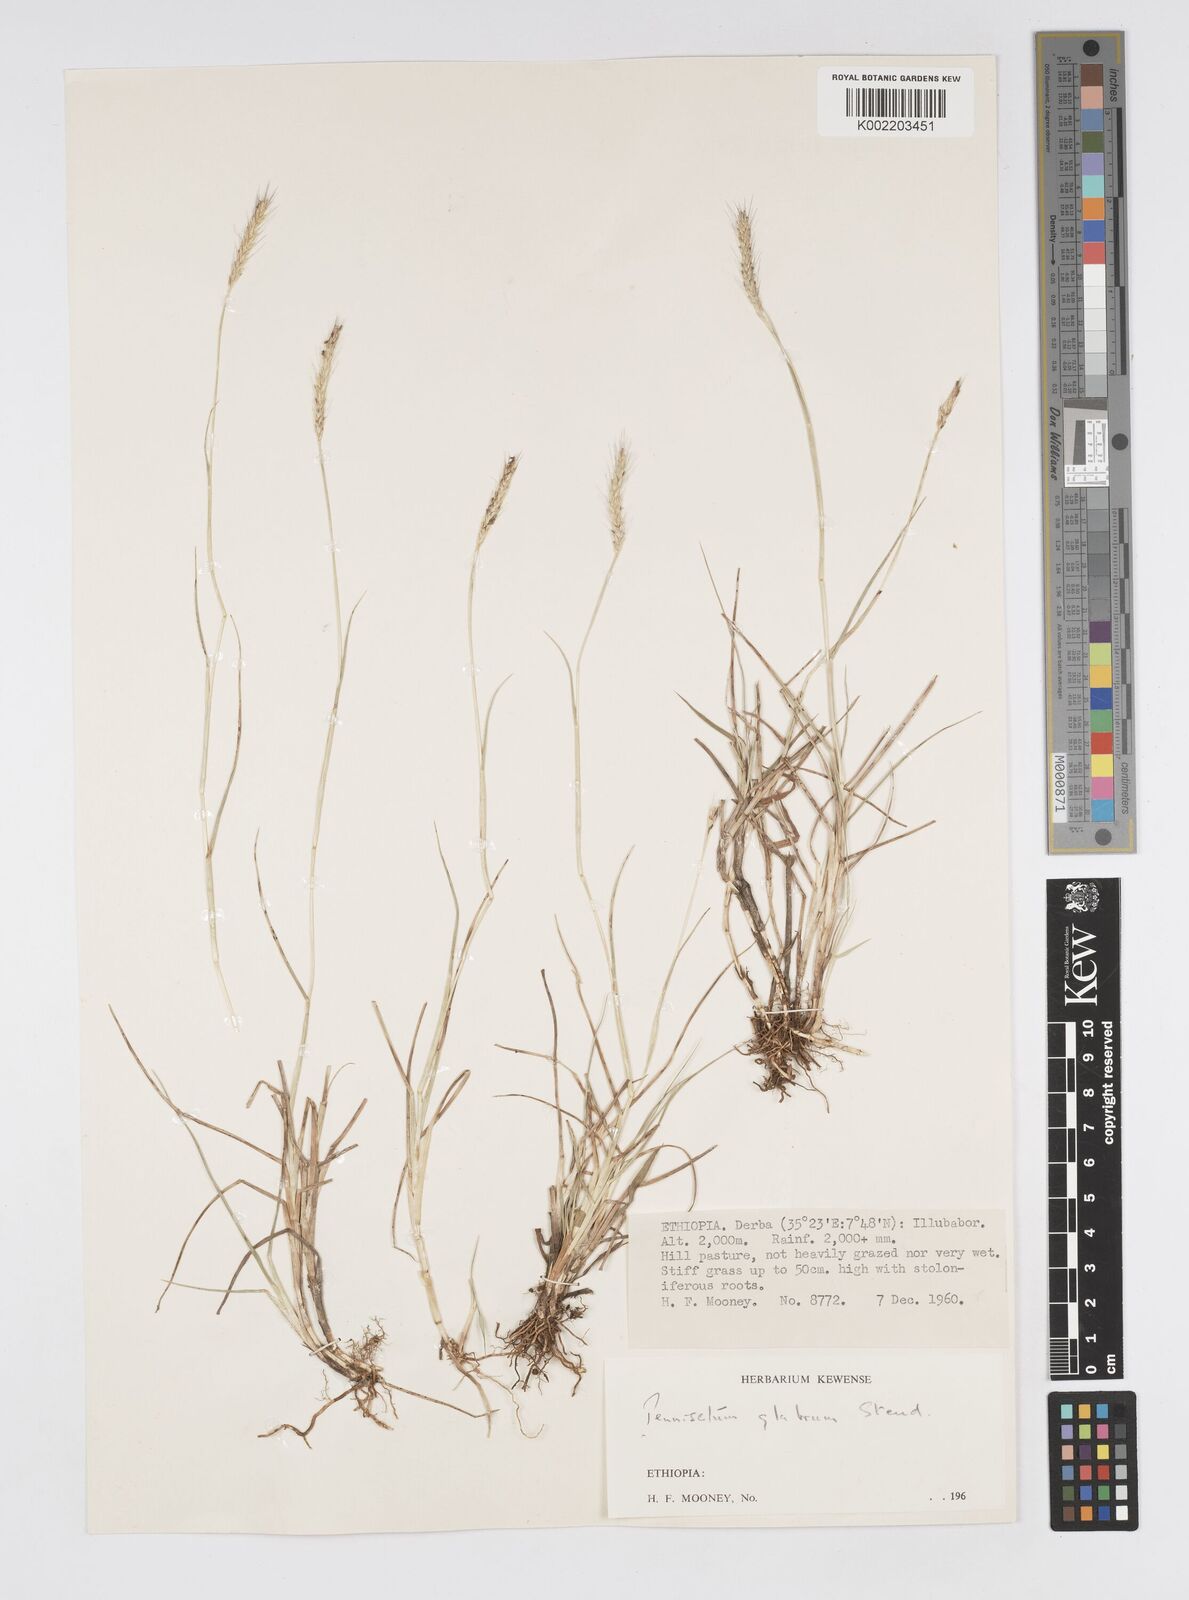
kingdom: Plantae
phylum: Tracheophyta
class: Liliopsida
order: Poales
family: Poaceae
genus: Cenchrus
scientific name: Cenchrus geniculatus
